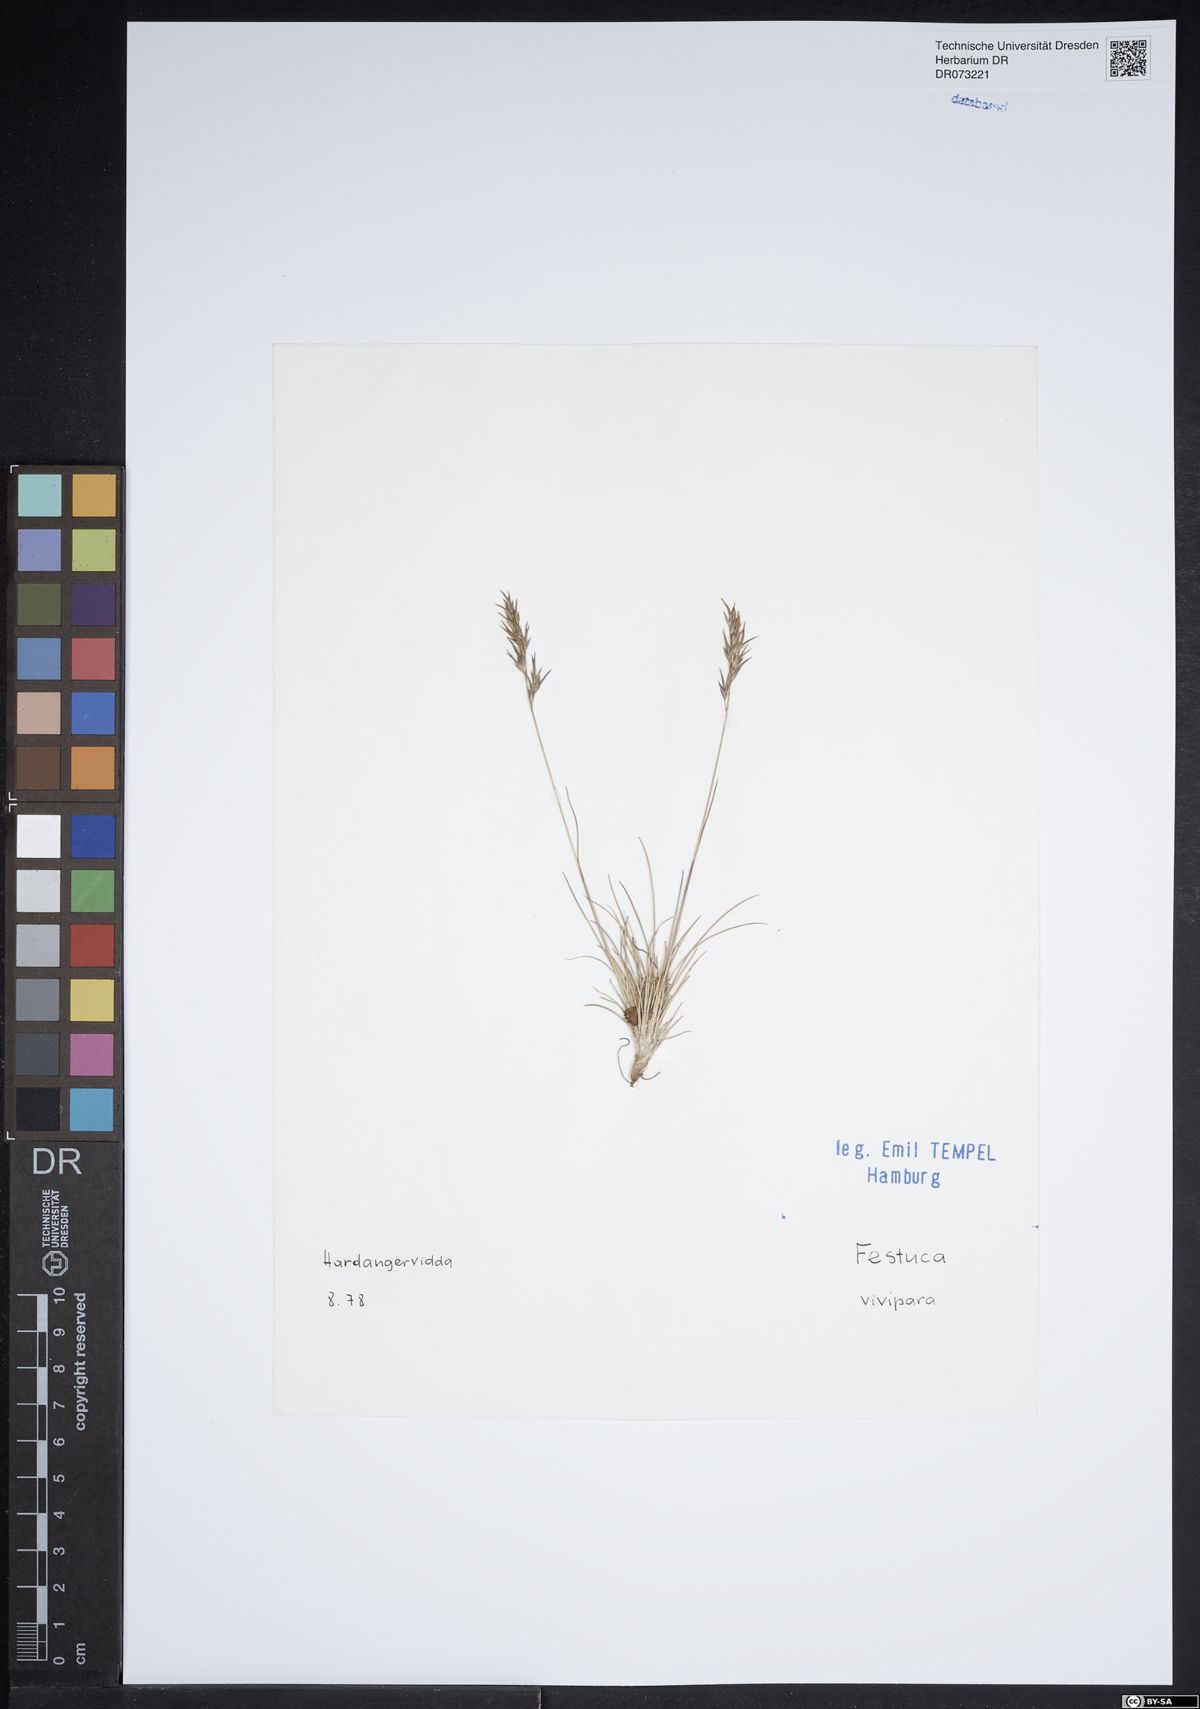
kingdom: Plantae
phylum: Tracheophyta
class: Liliopsida
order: Poales
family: Poaceae
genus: Festuca
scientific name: Festuca vivipara
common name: Viviparous sheep's-fescue
